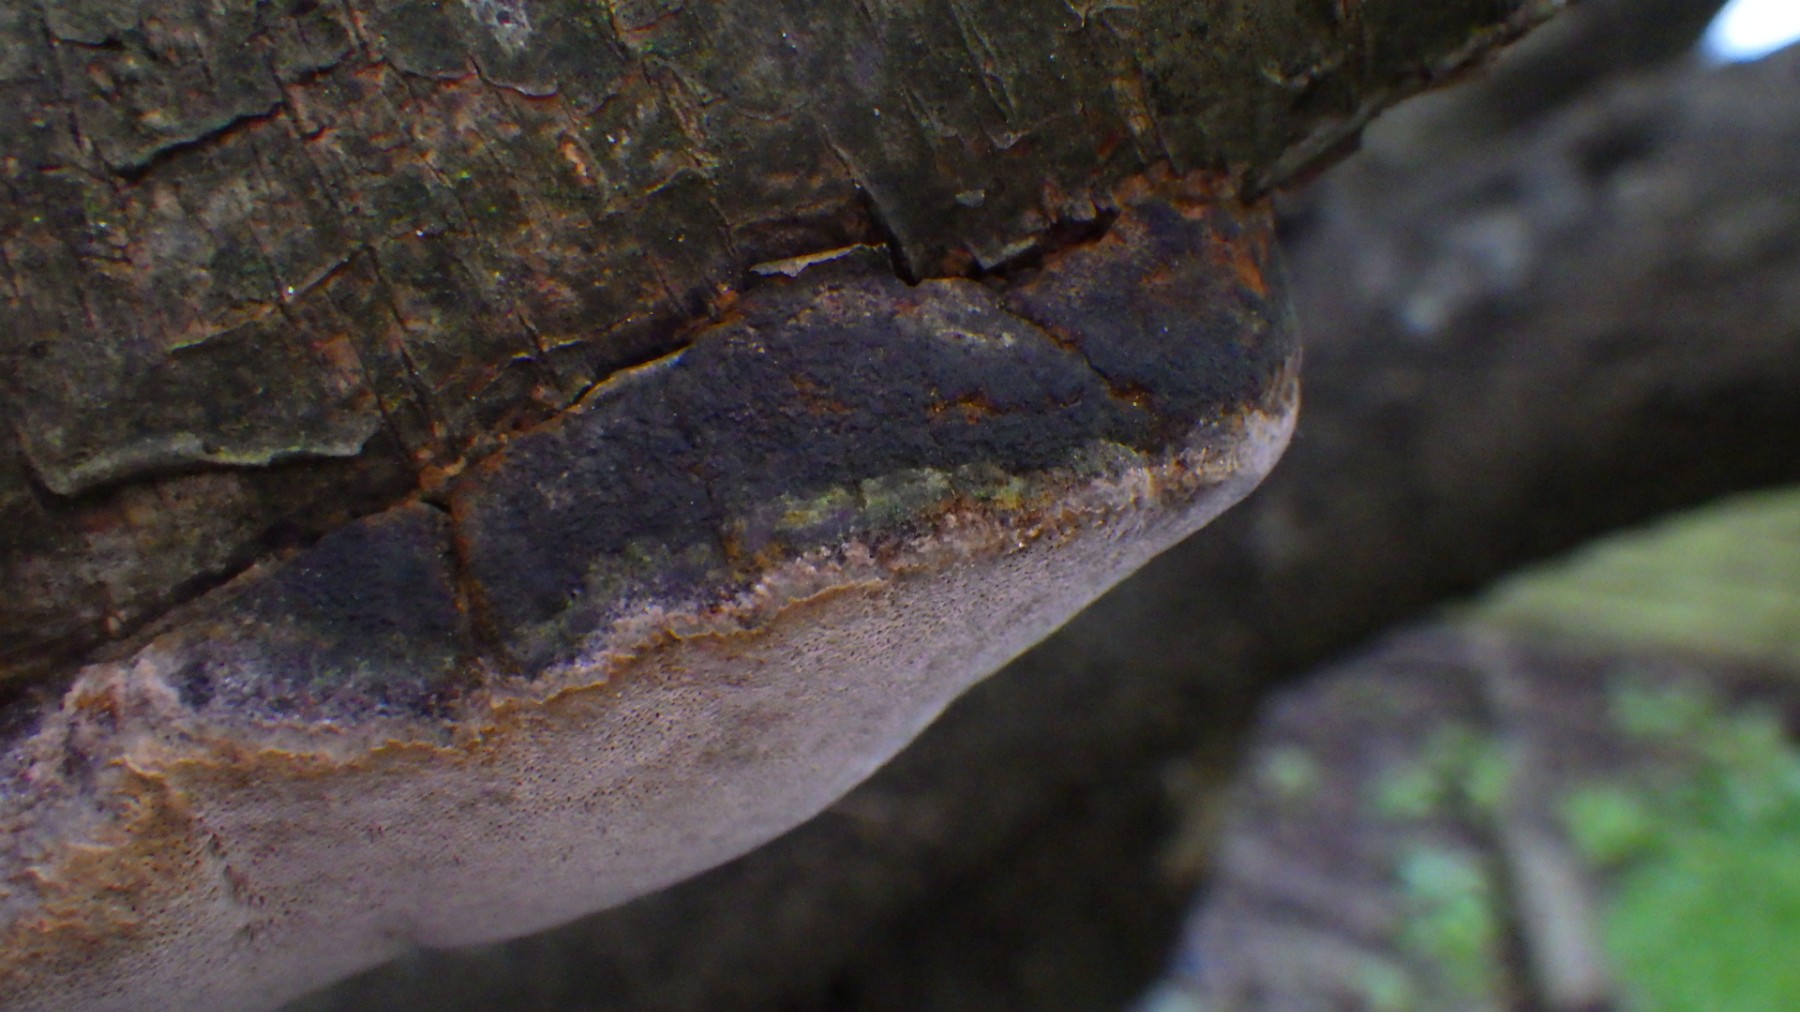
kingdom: Fungi
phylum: Basidiomycota
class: Agaricomycetes
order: Hymenochaetales
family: Hymenochaetaceae
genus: Phellinus
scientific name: Phellinus pomaceus
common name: blomme-ildporesvamp
